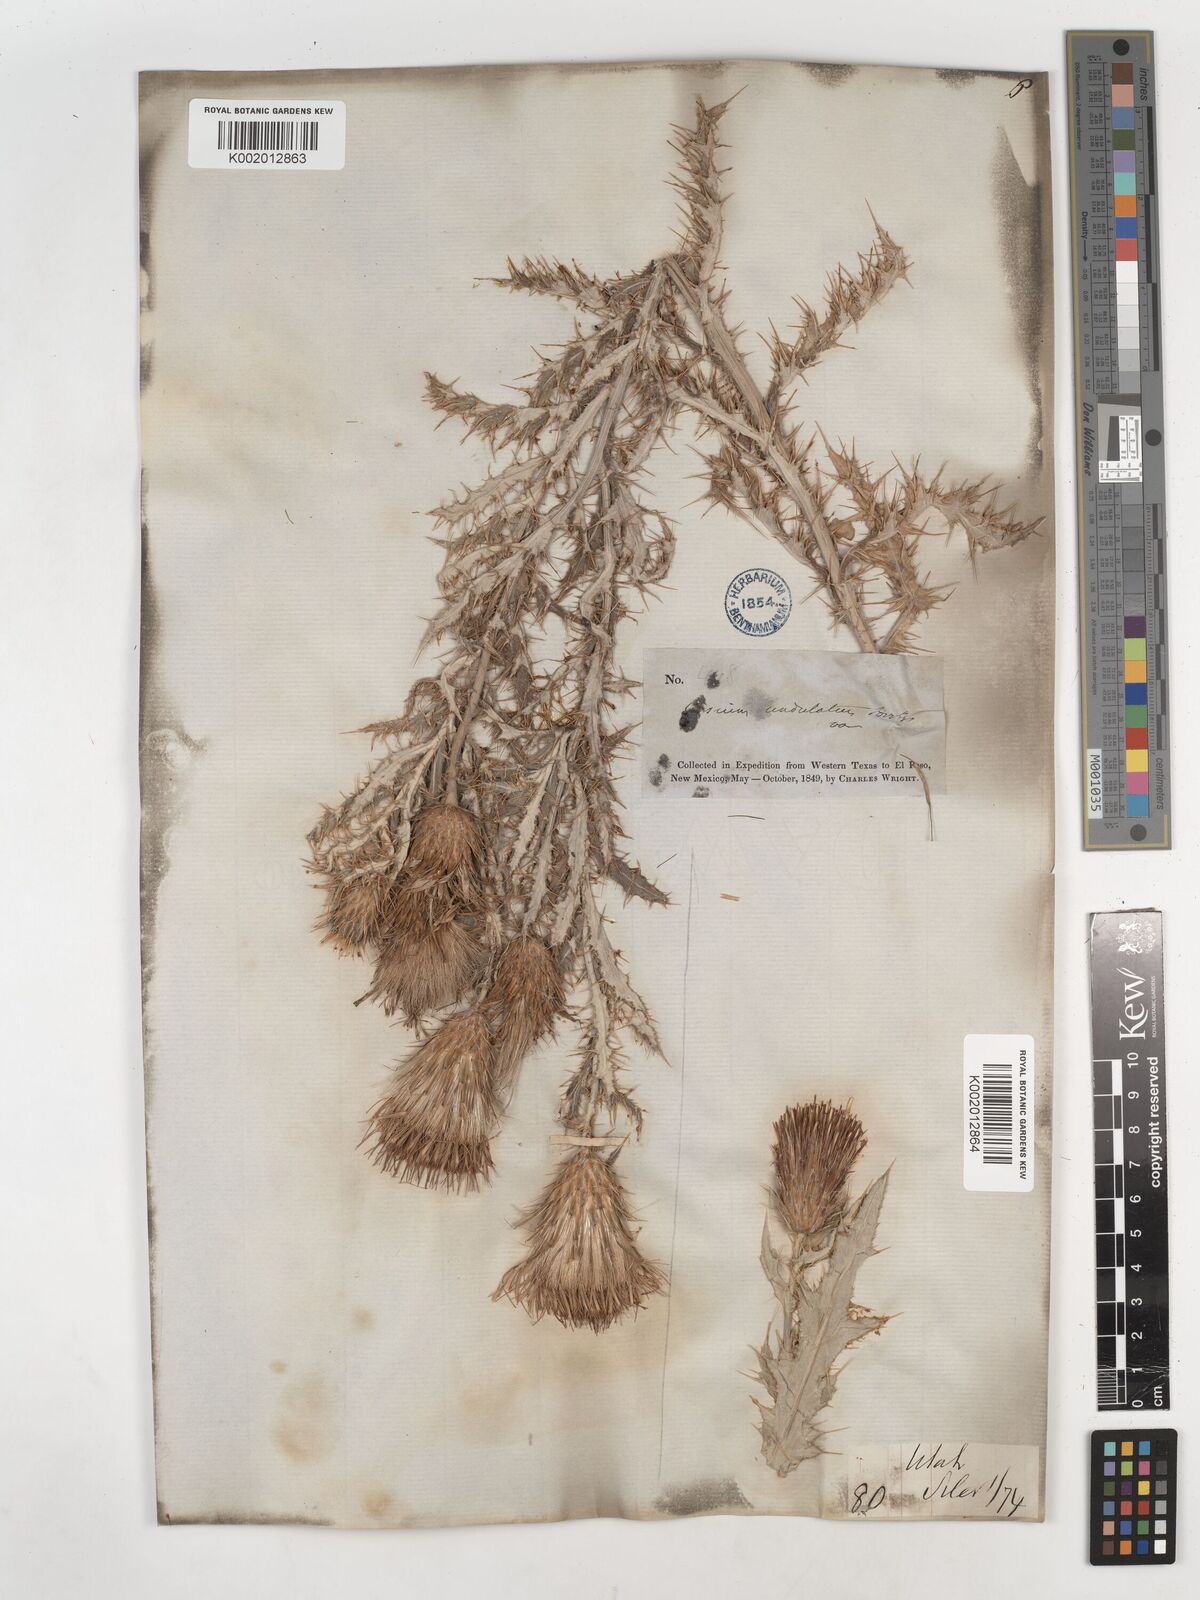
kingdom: Plantae
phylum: Tracheophyta
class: Magnoliopsida
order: Asterales
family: Asteraceae
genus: Cirsium
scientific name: Cirsium
